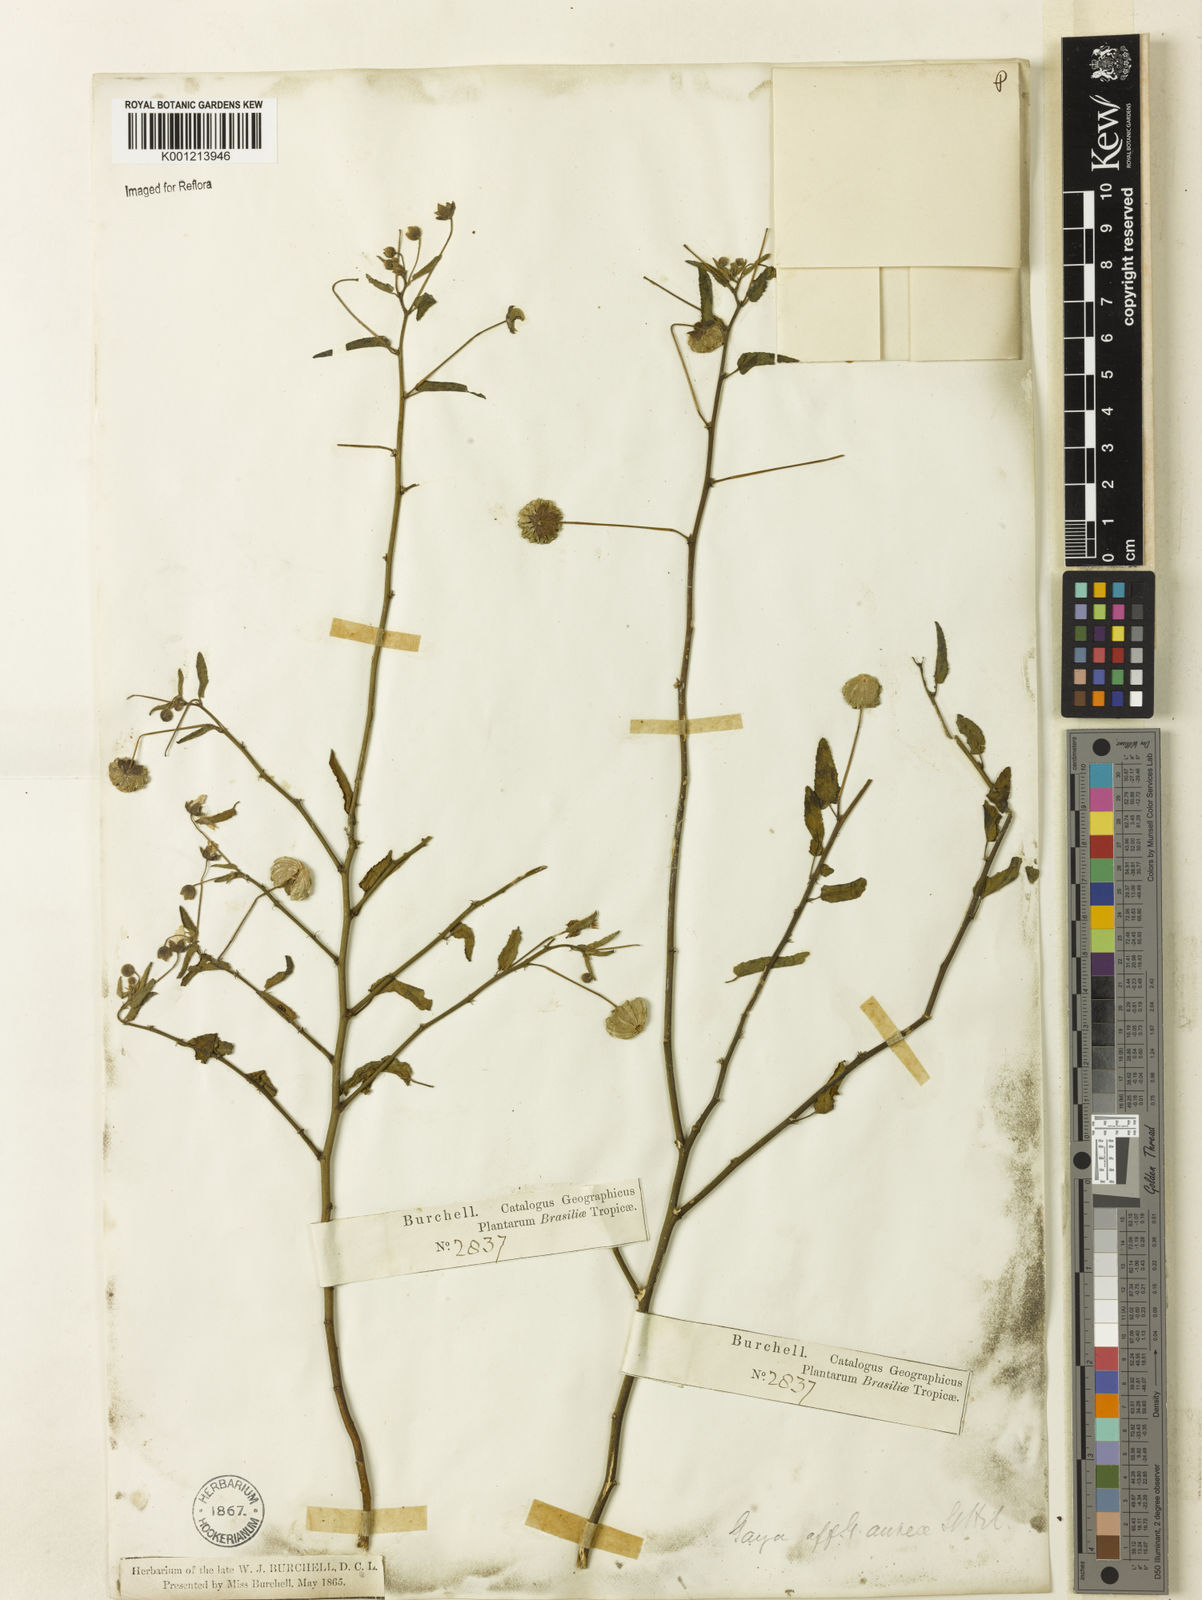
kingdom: Plantae
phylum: Tracheophyta
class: Magnoliopsida
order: Malvales
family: Malvaceae
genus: Gaya
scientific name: Gaya aurea
